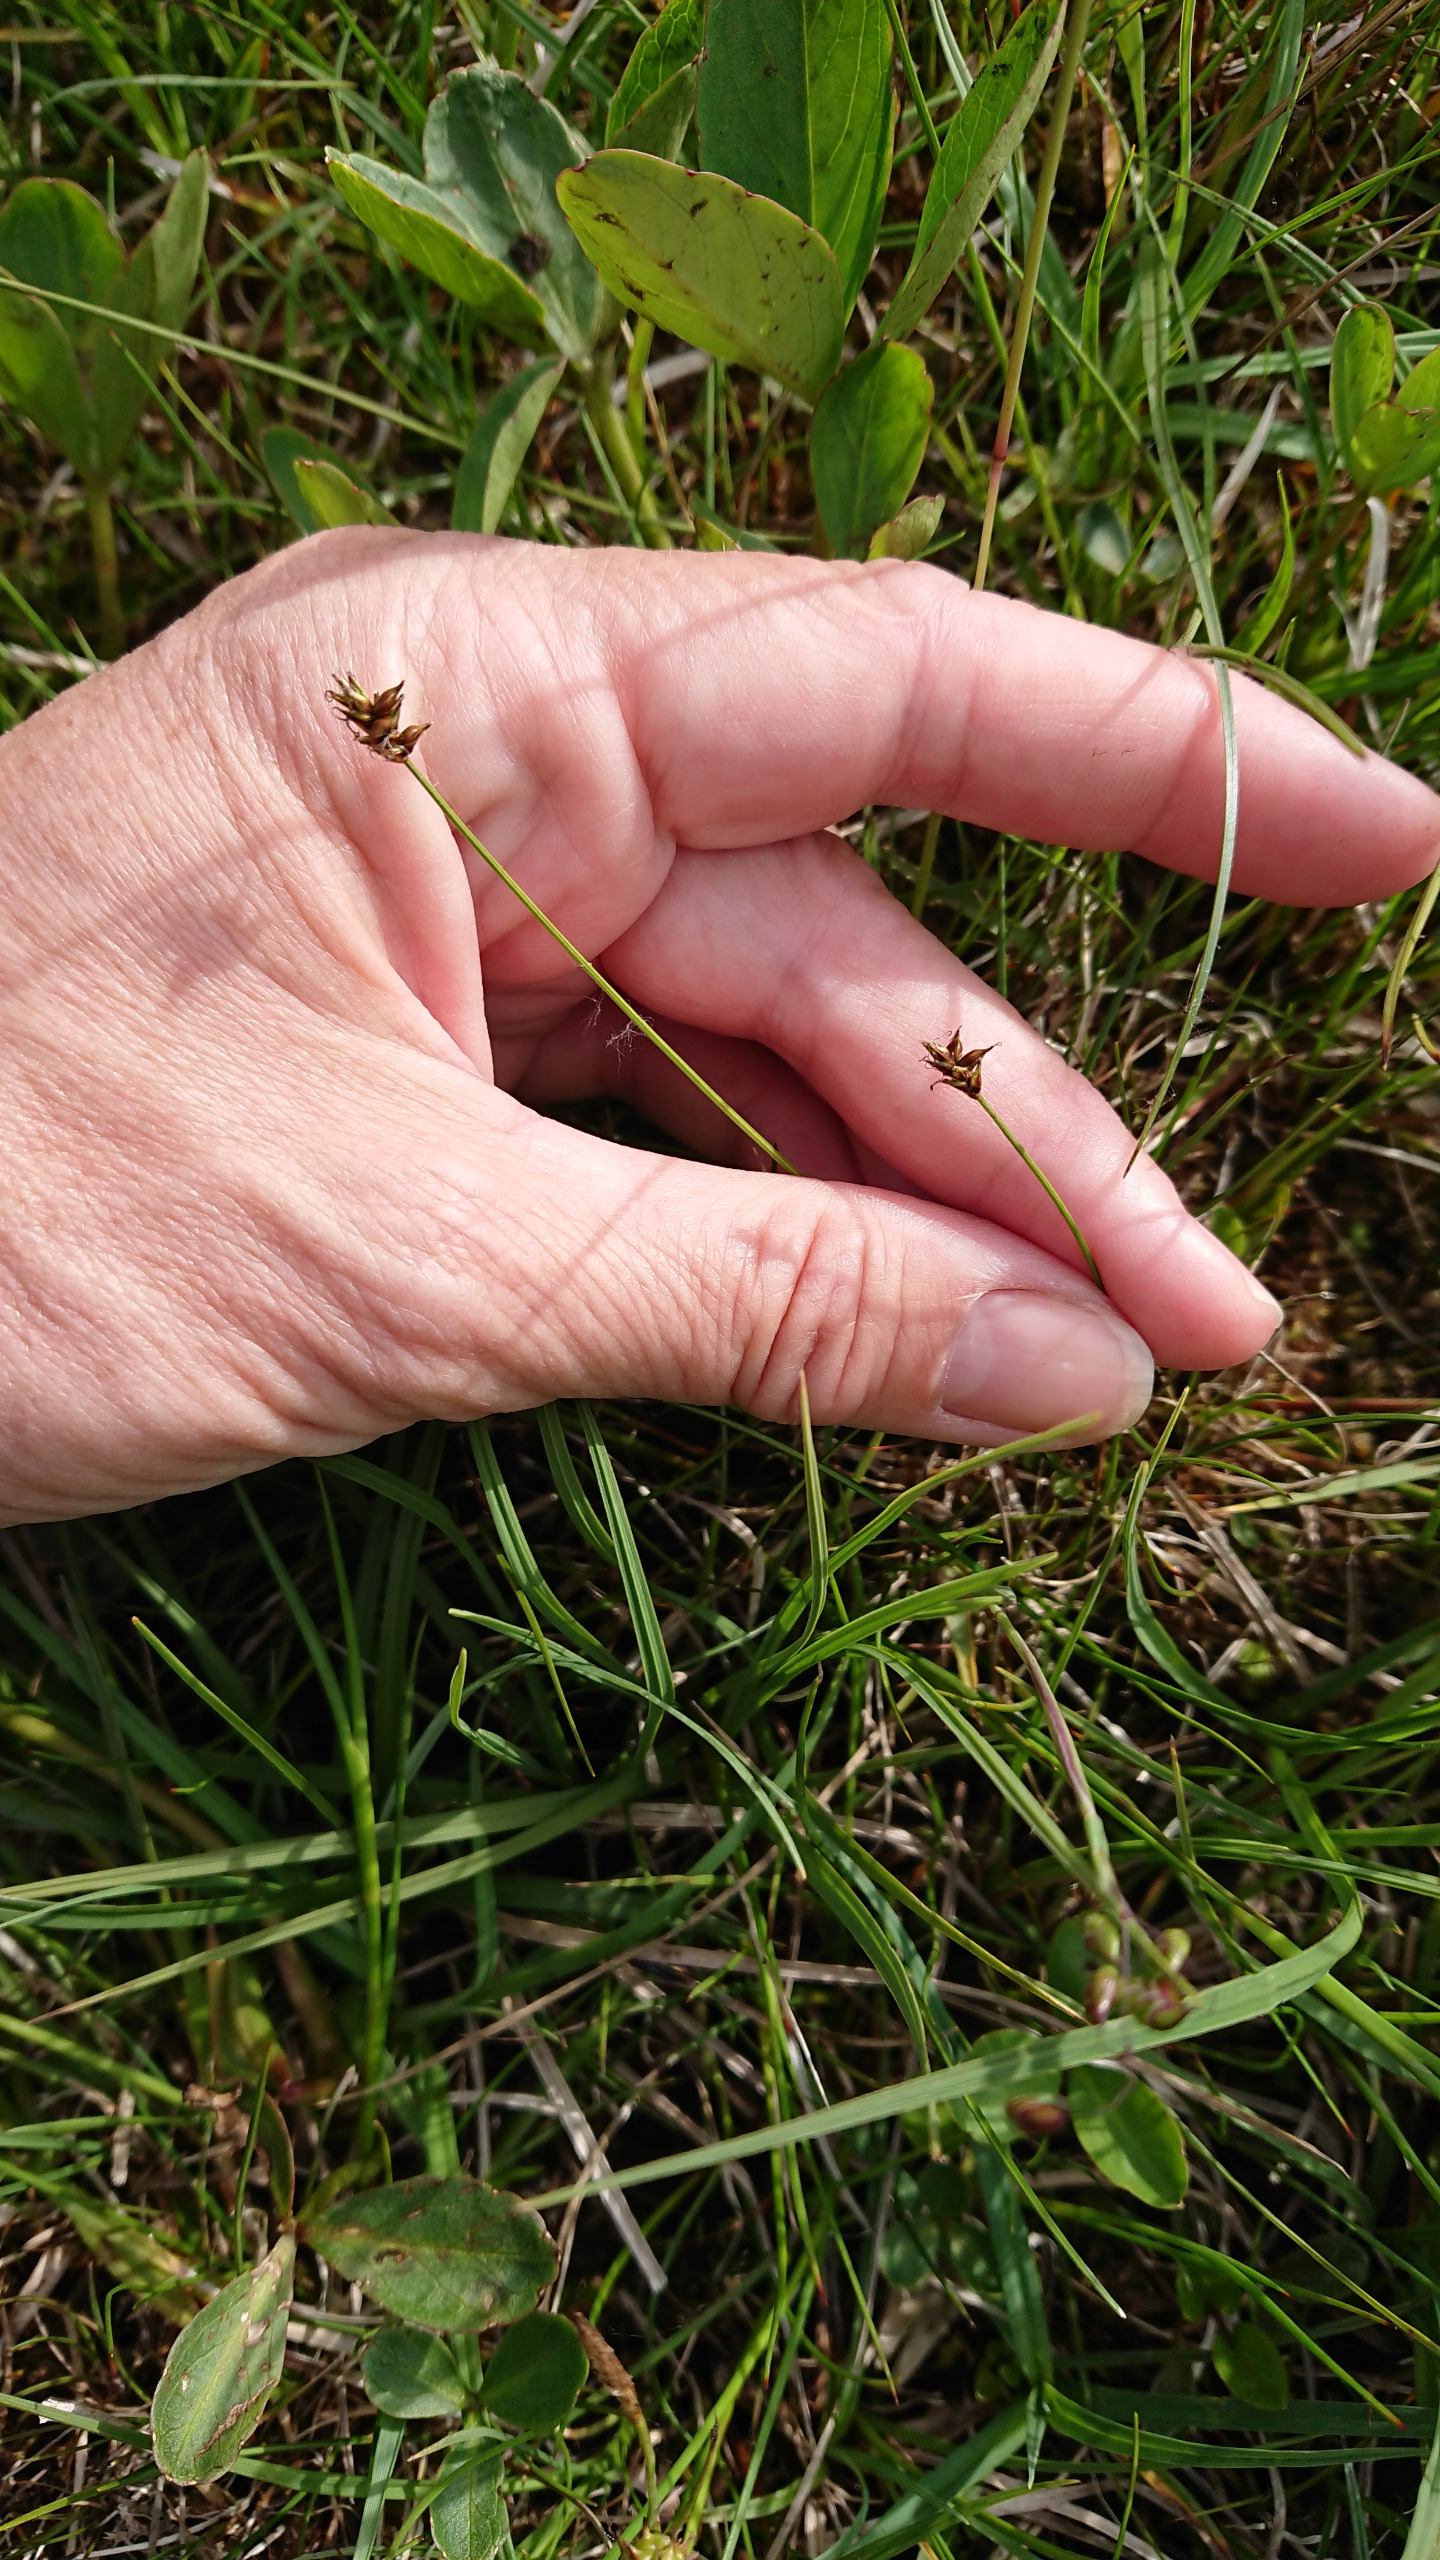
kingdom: Plantae
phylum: Tracheophyta
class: Liliopsida
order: Poales
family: Cyperaceae
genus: Carex
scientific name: Carex dioica
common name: Tvebo star
